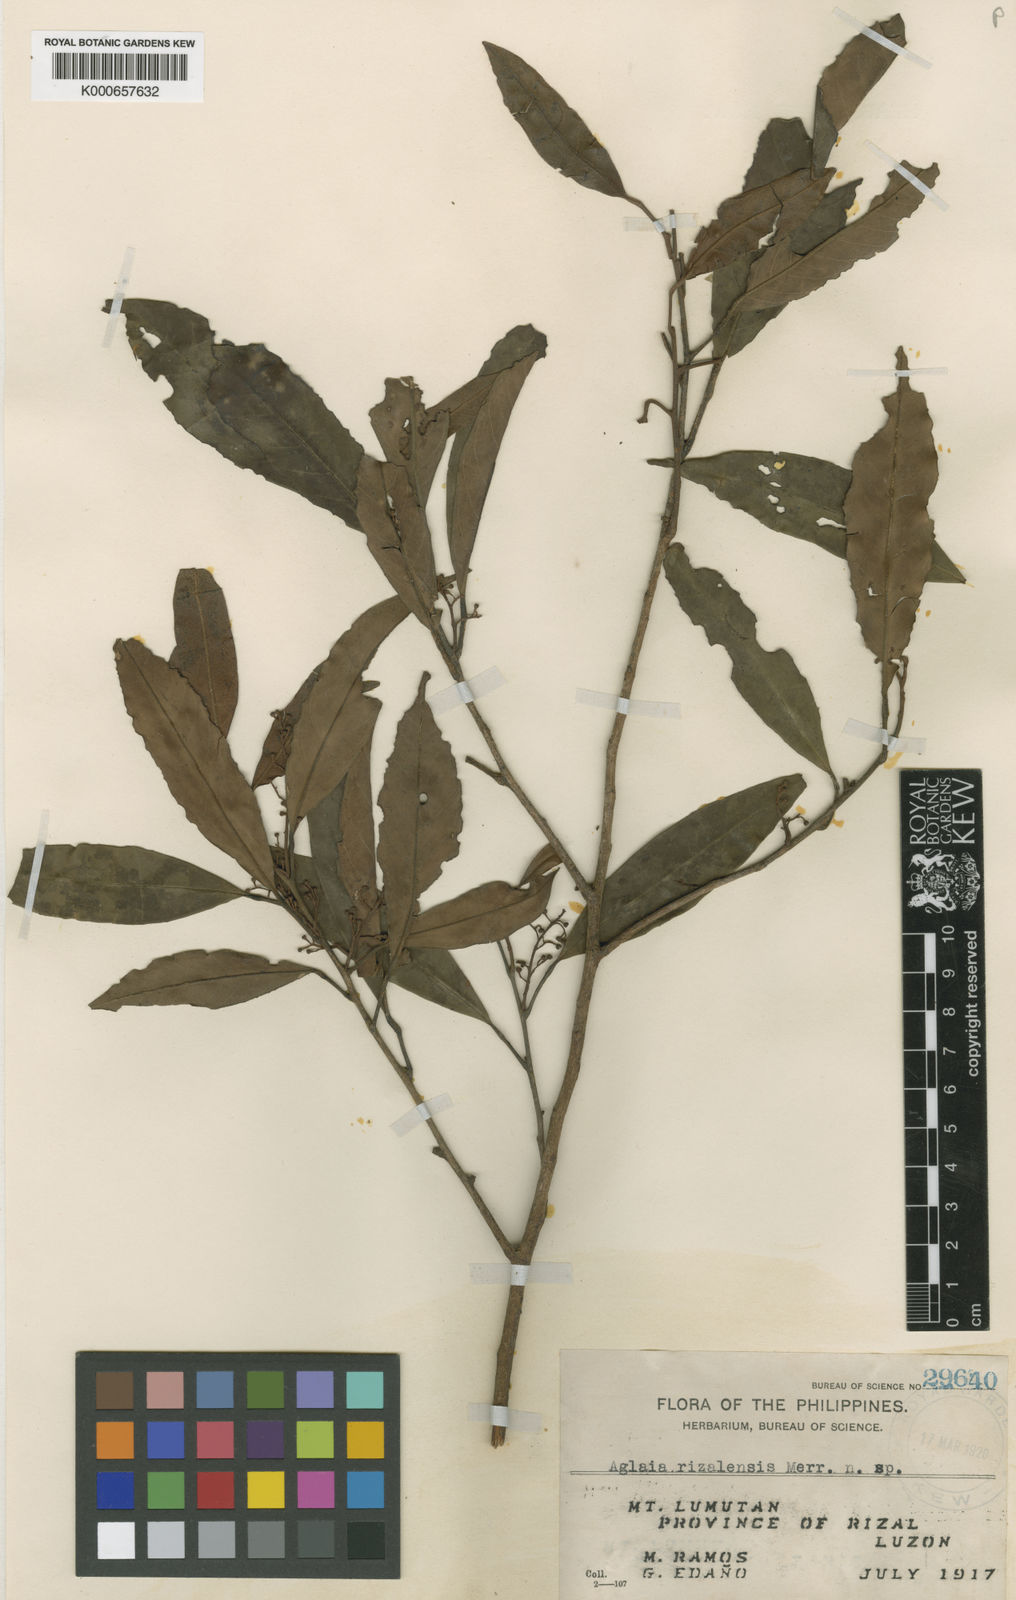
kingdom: Plantae
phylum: Tracheophyta
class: Magnoliopsida
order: Sapindales
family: Meliaceae
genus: Aglaia
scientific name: Aglaia luzoniensis
